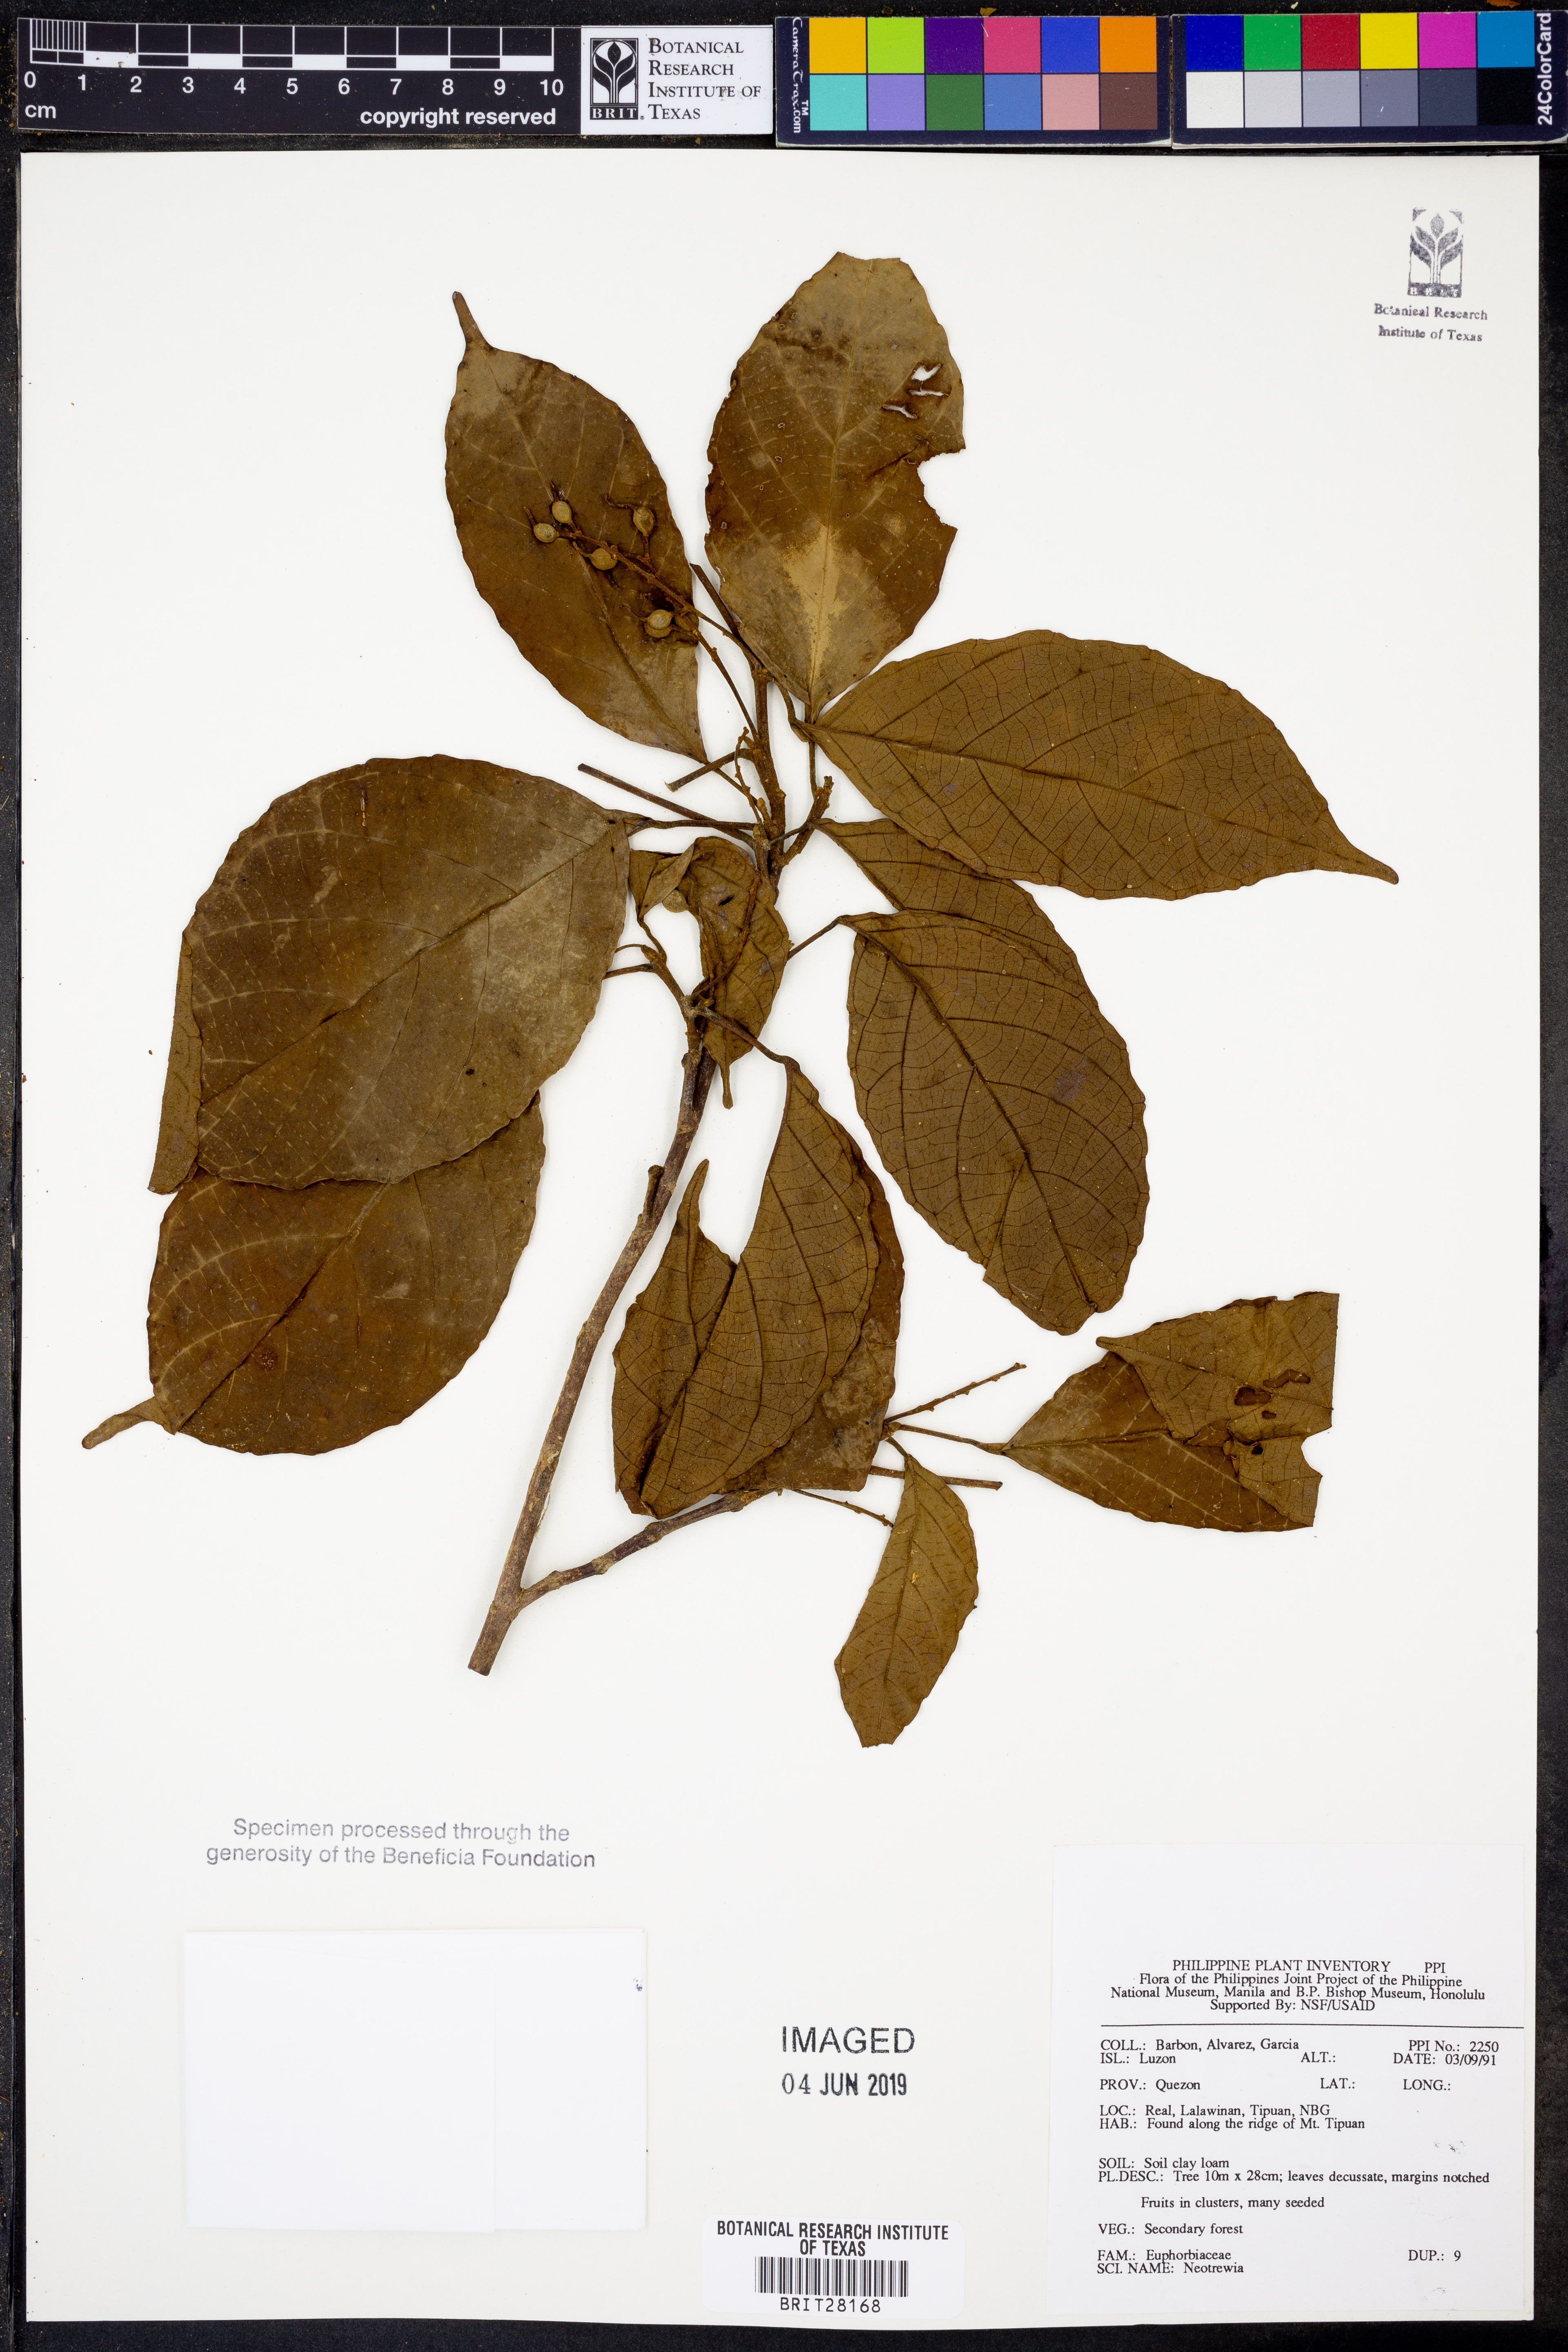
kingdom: Plantae
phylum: Tracheophyta
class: Magnoliopsida
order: Malpighiales
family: Euphorbiaceae
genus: Mallotus
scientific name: Mallotus
